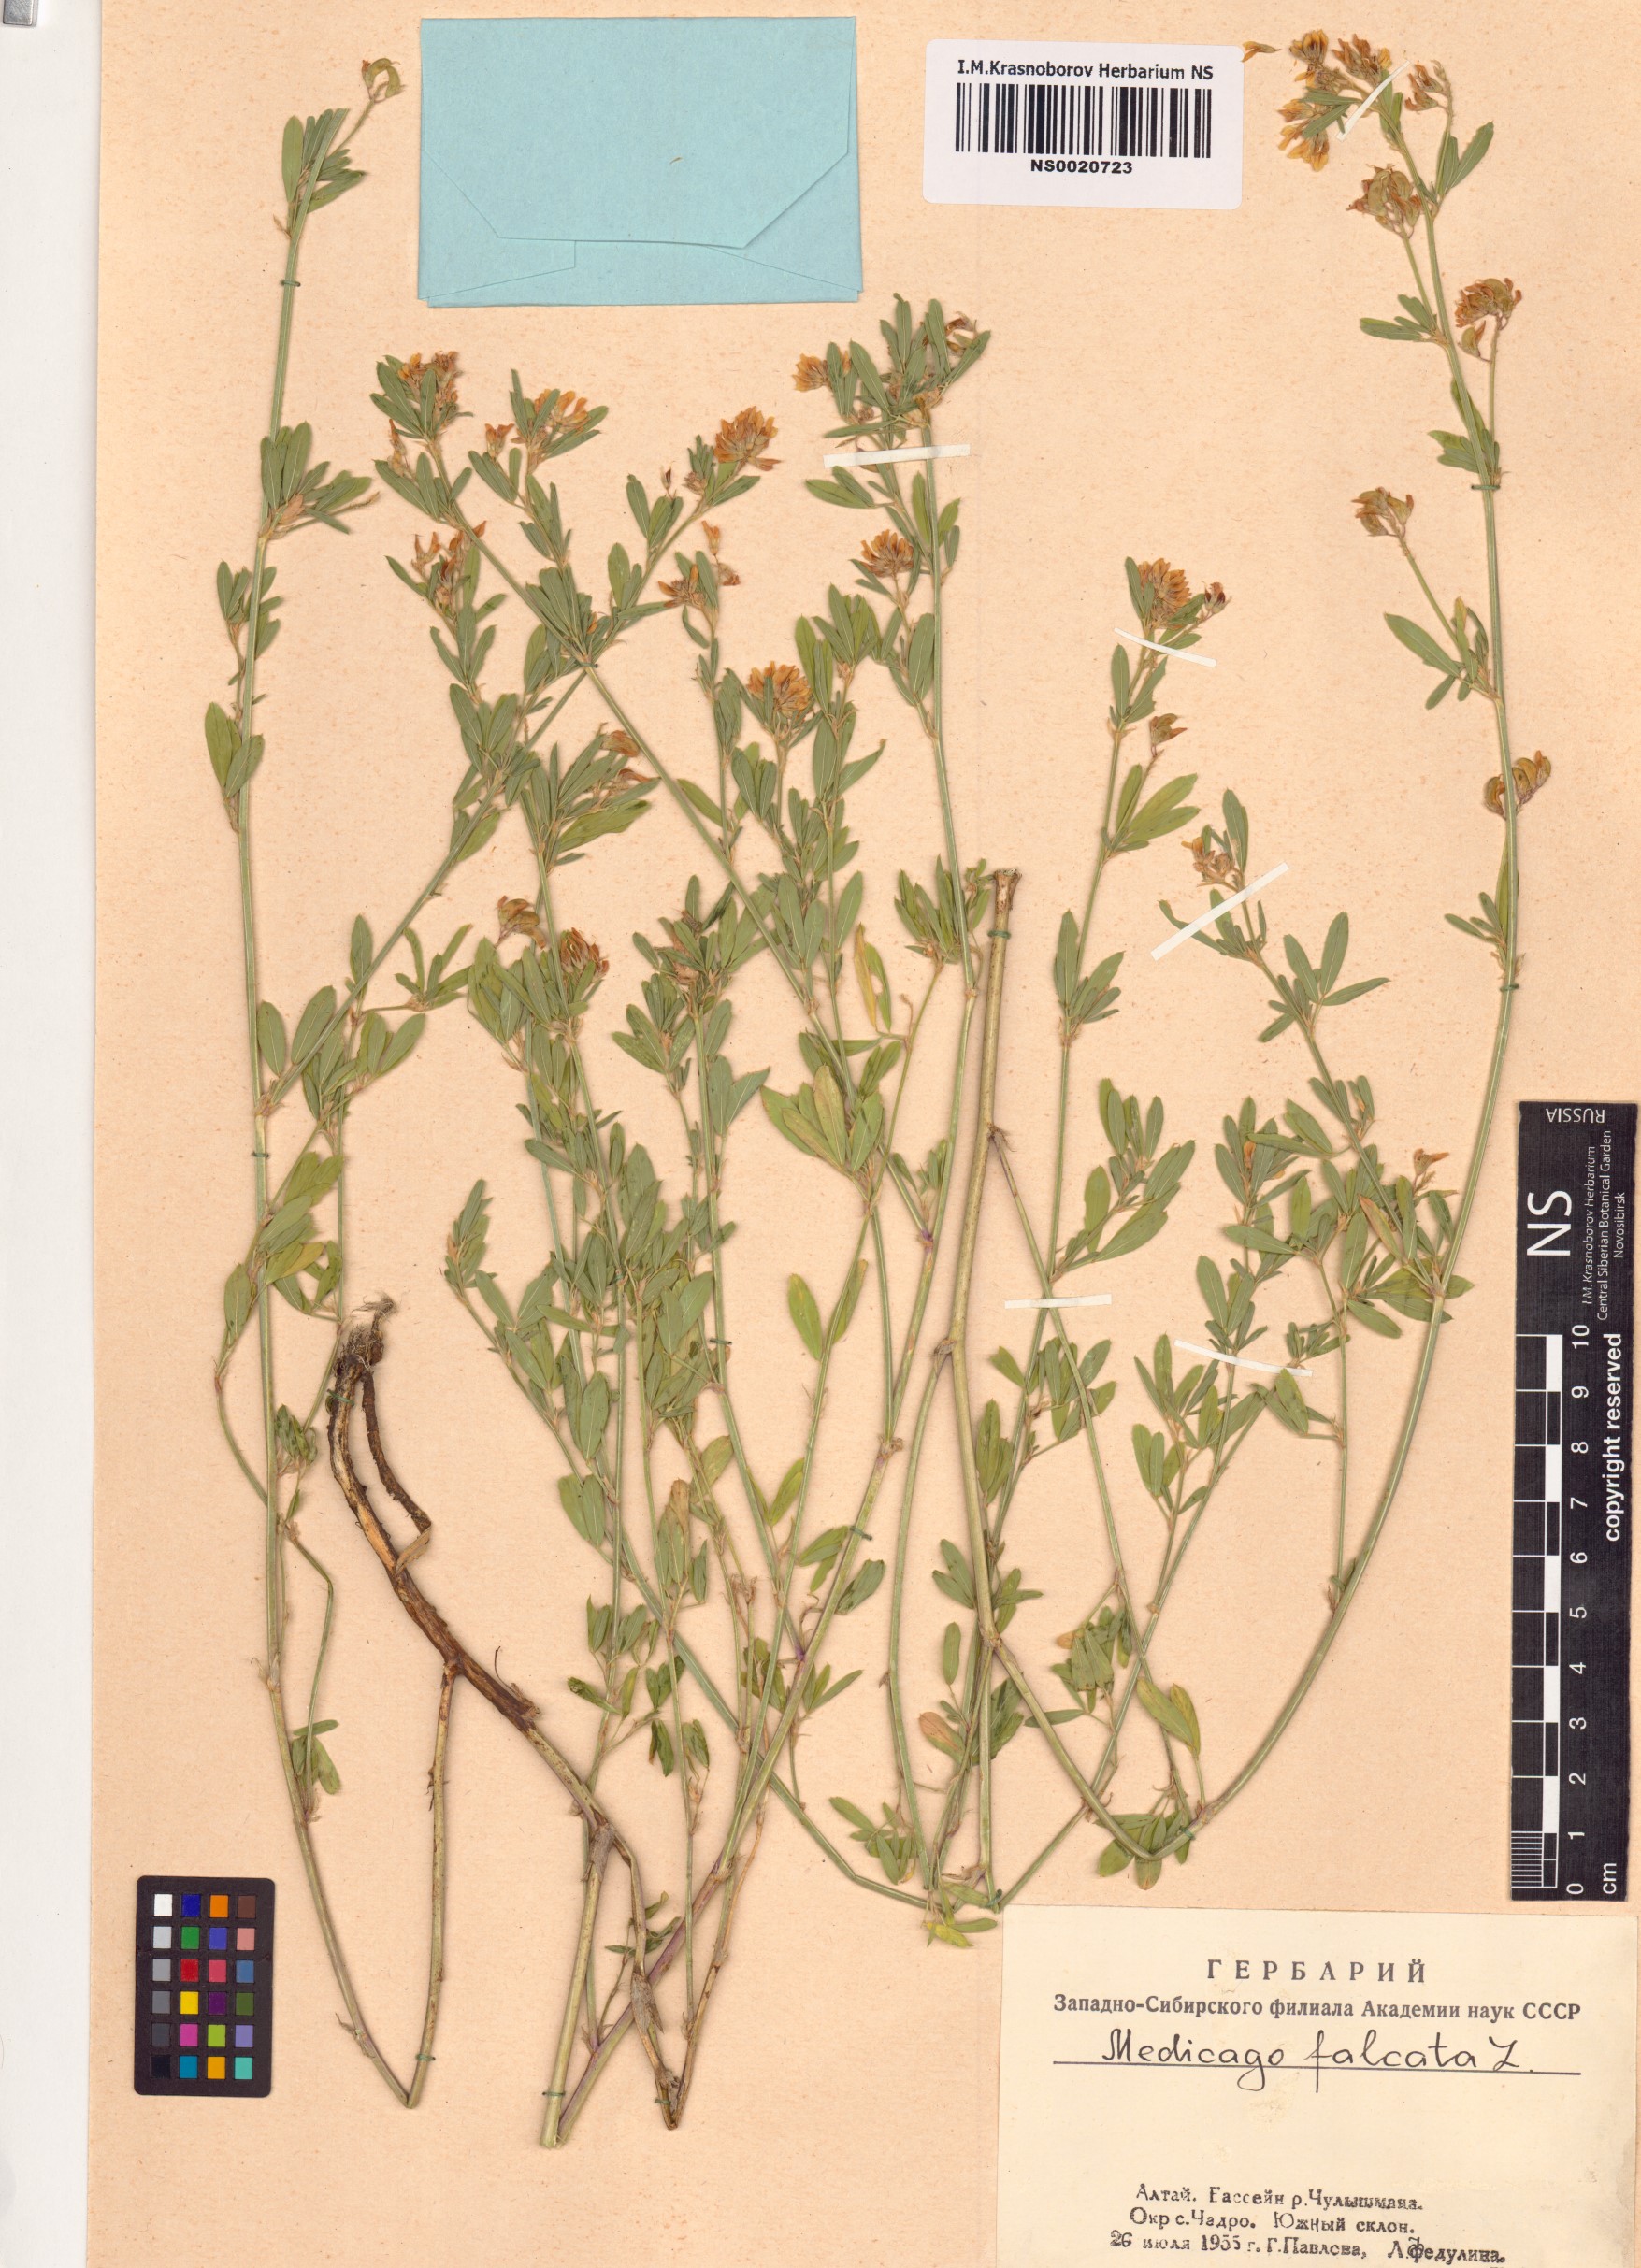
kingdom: Plantae
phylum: Tracheophyta
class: Magnoliopsida
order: Fabales
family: Fabaceae
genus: Medicago
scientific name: Medicago falcata
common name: Sickle medick
